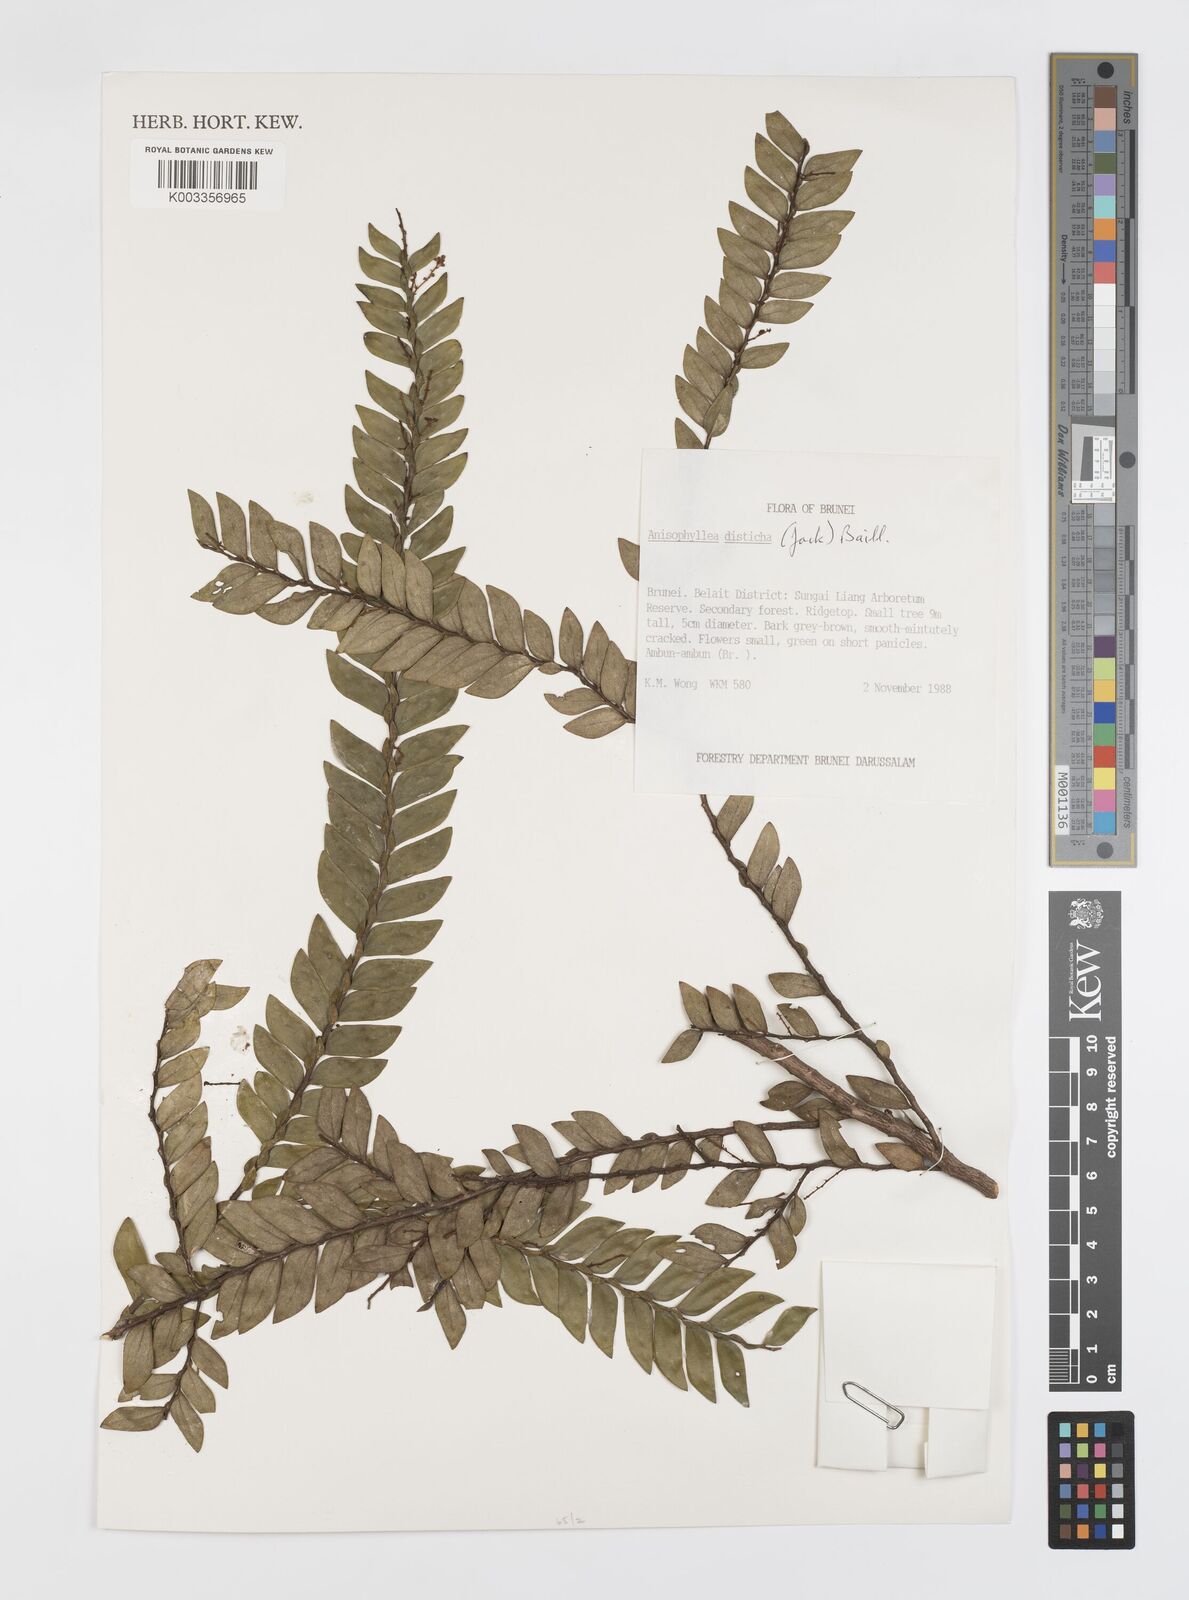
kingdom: Plantae
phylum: Tracheophyta
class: Magnoliopsida
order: Cucurbitales
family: Anisophylleaceae
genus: Anisophyllea
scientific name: Anisophyllea disticha
